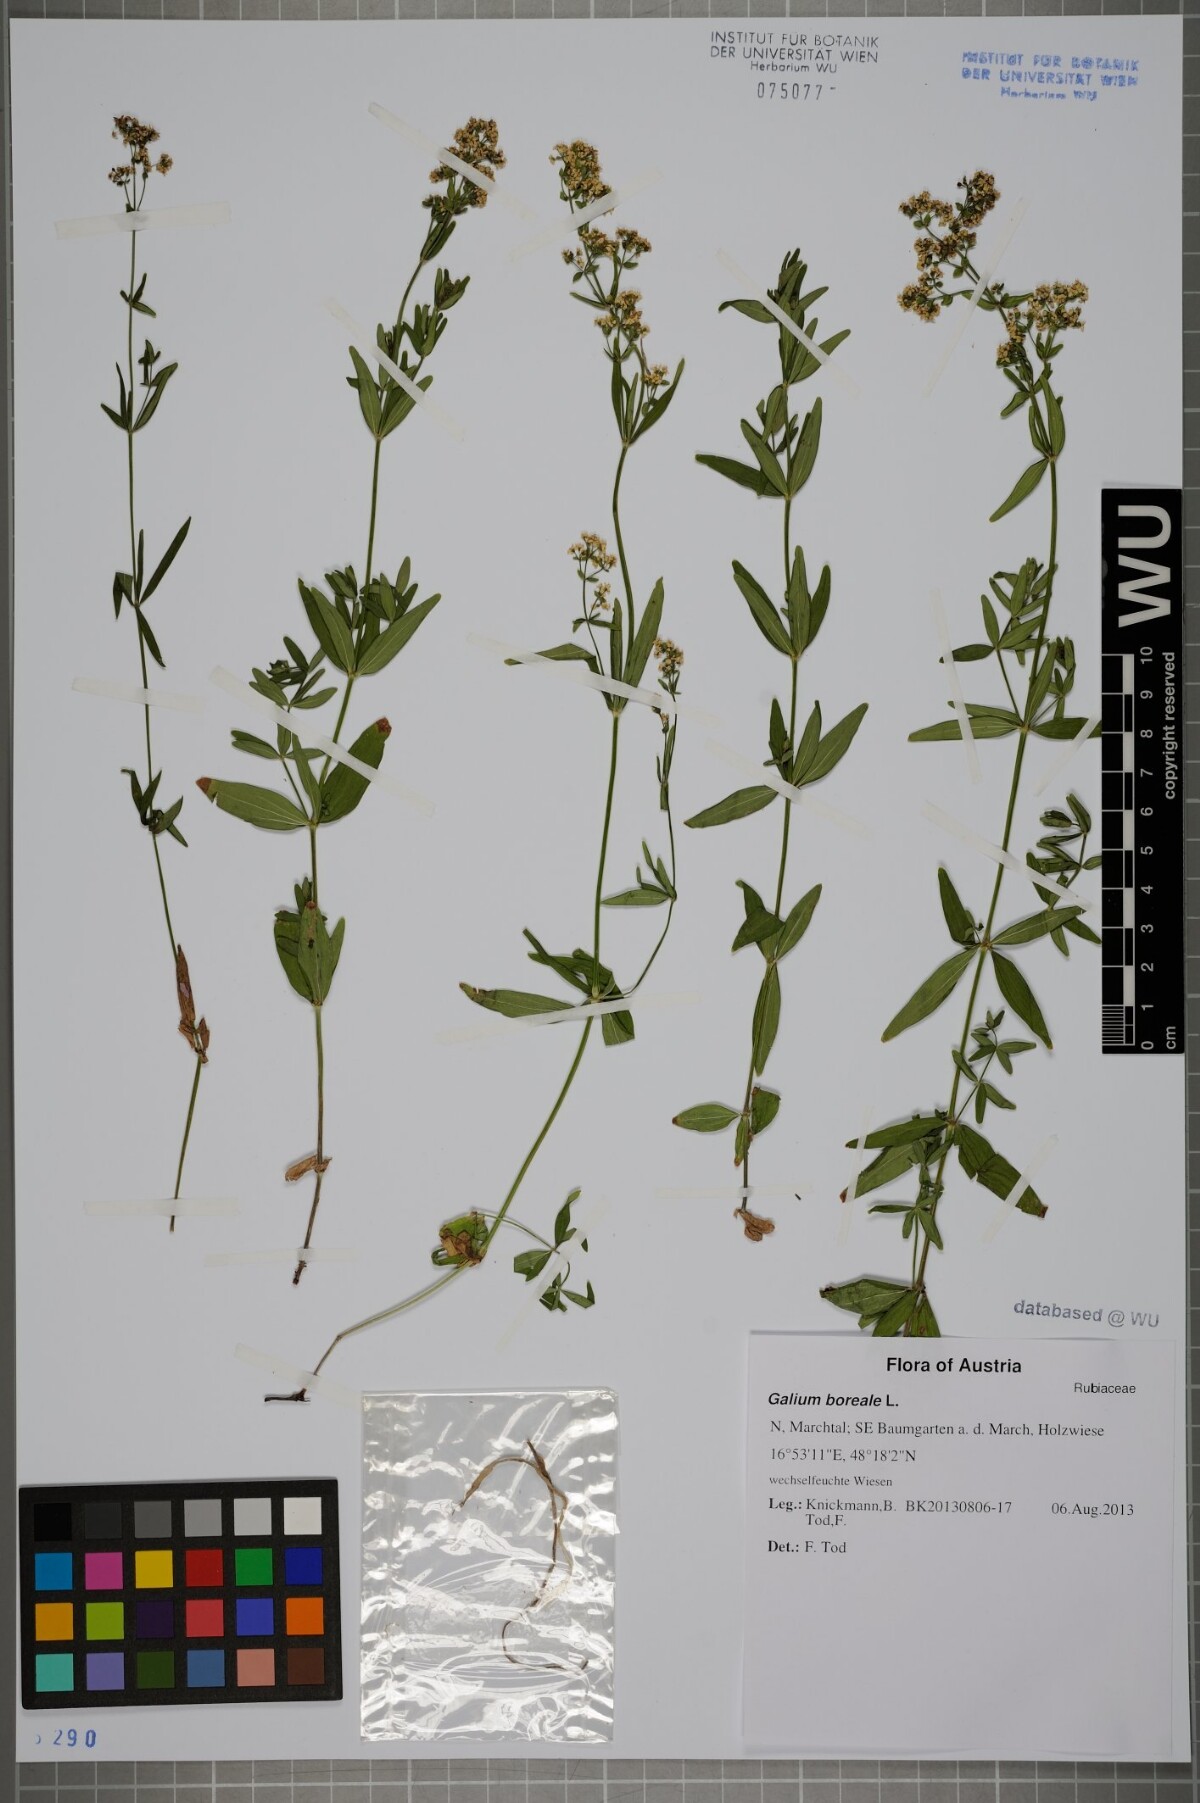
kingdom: Plantae
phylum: Tracheophyta
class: Magnoliopsida
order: Gentianales
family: Rubiaceae
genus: Galium
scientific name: Galium boreale
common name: Northern bedstraw
